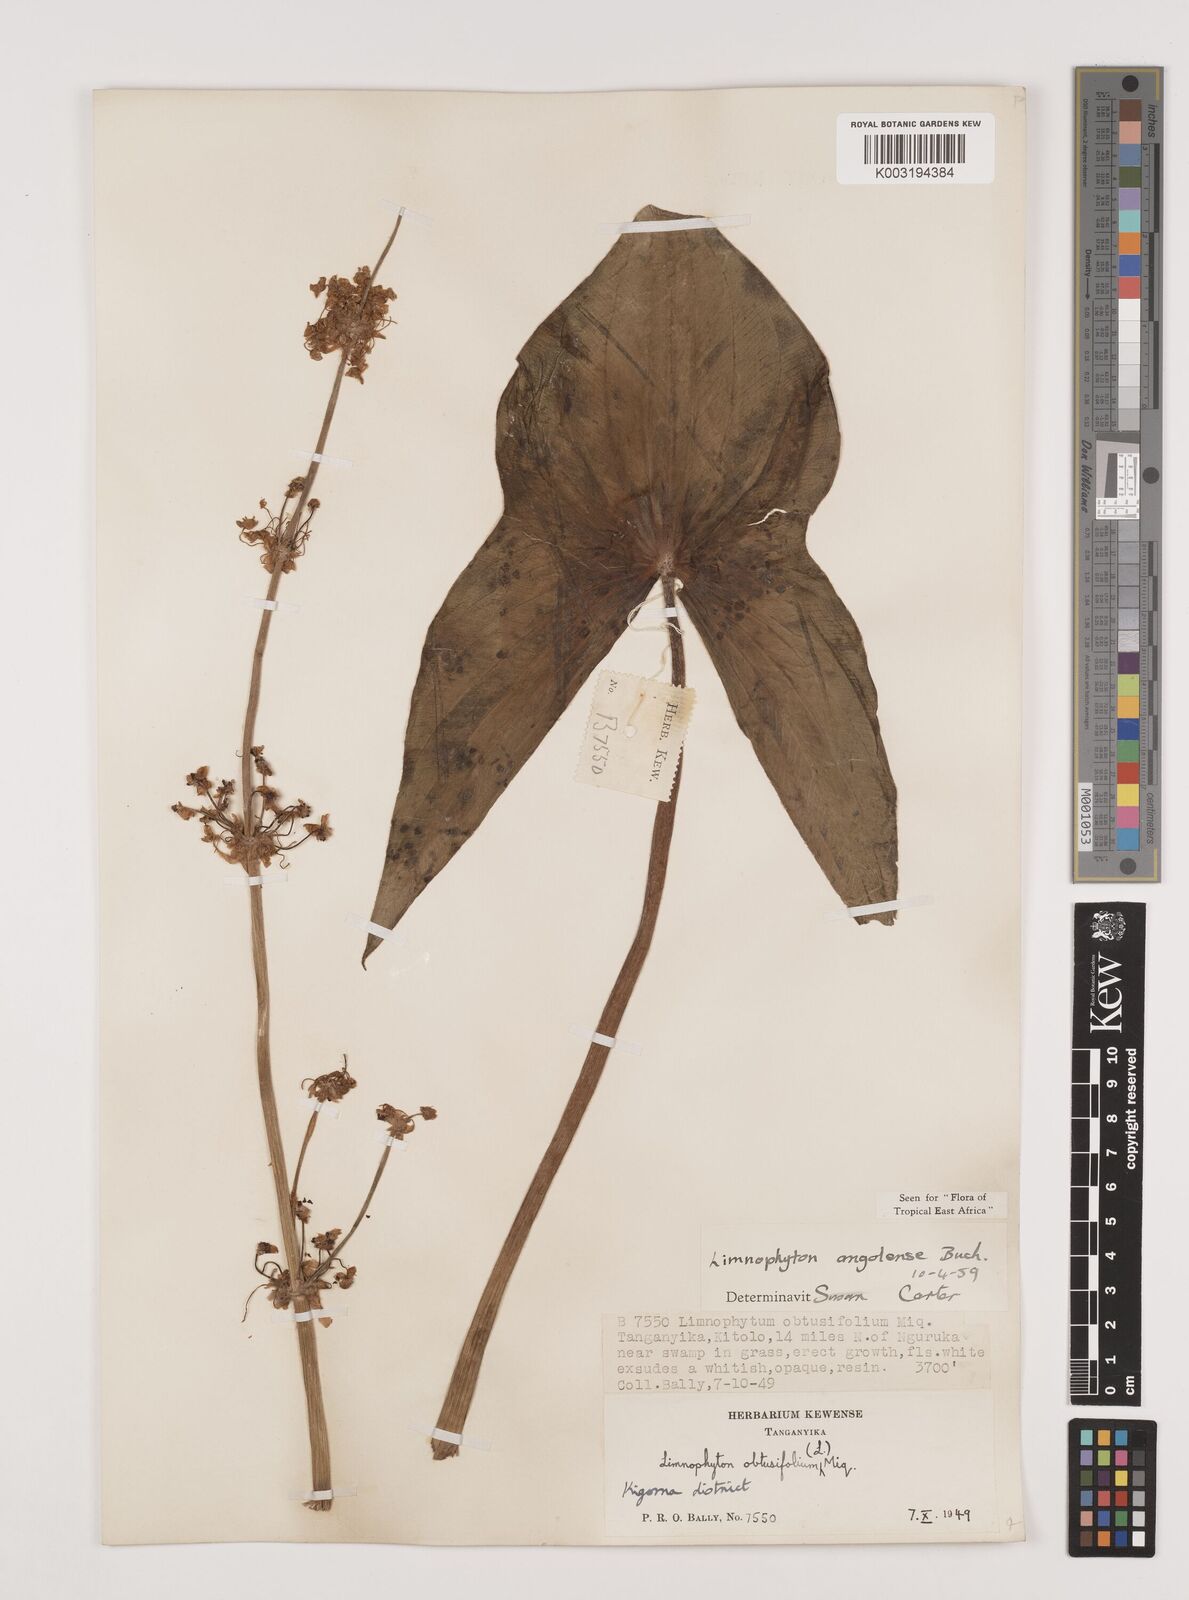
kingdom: Plantae
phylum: Tracheophyta
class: Liliopsida
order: Alismatales
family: Alismataceae
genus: Limnophyton
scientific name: Limnophyton angolense
